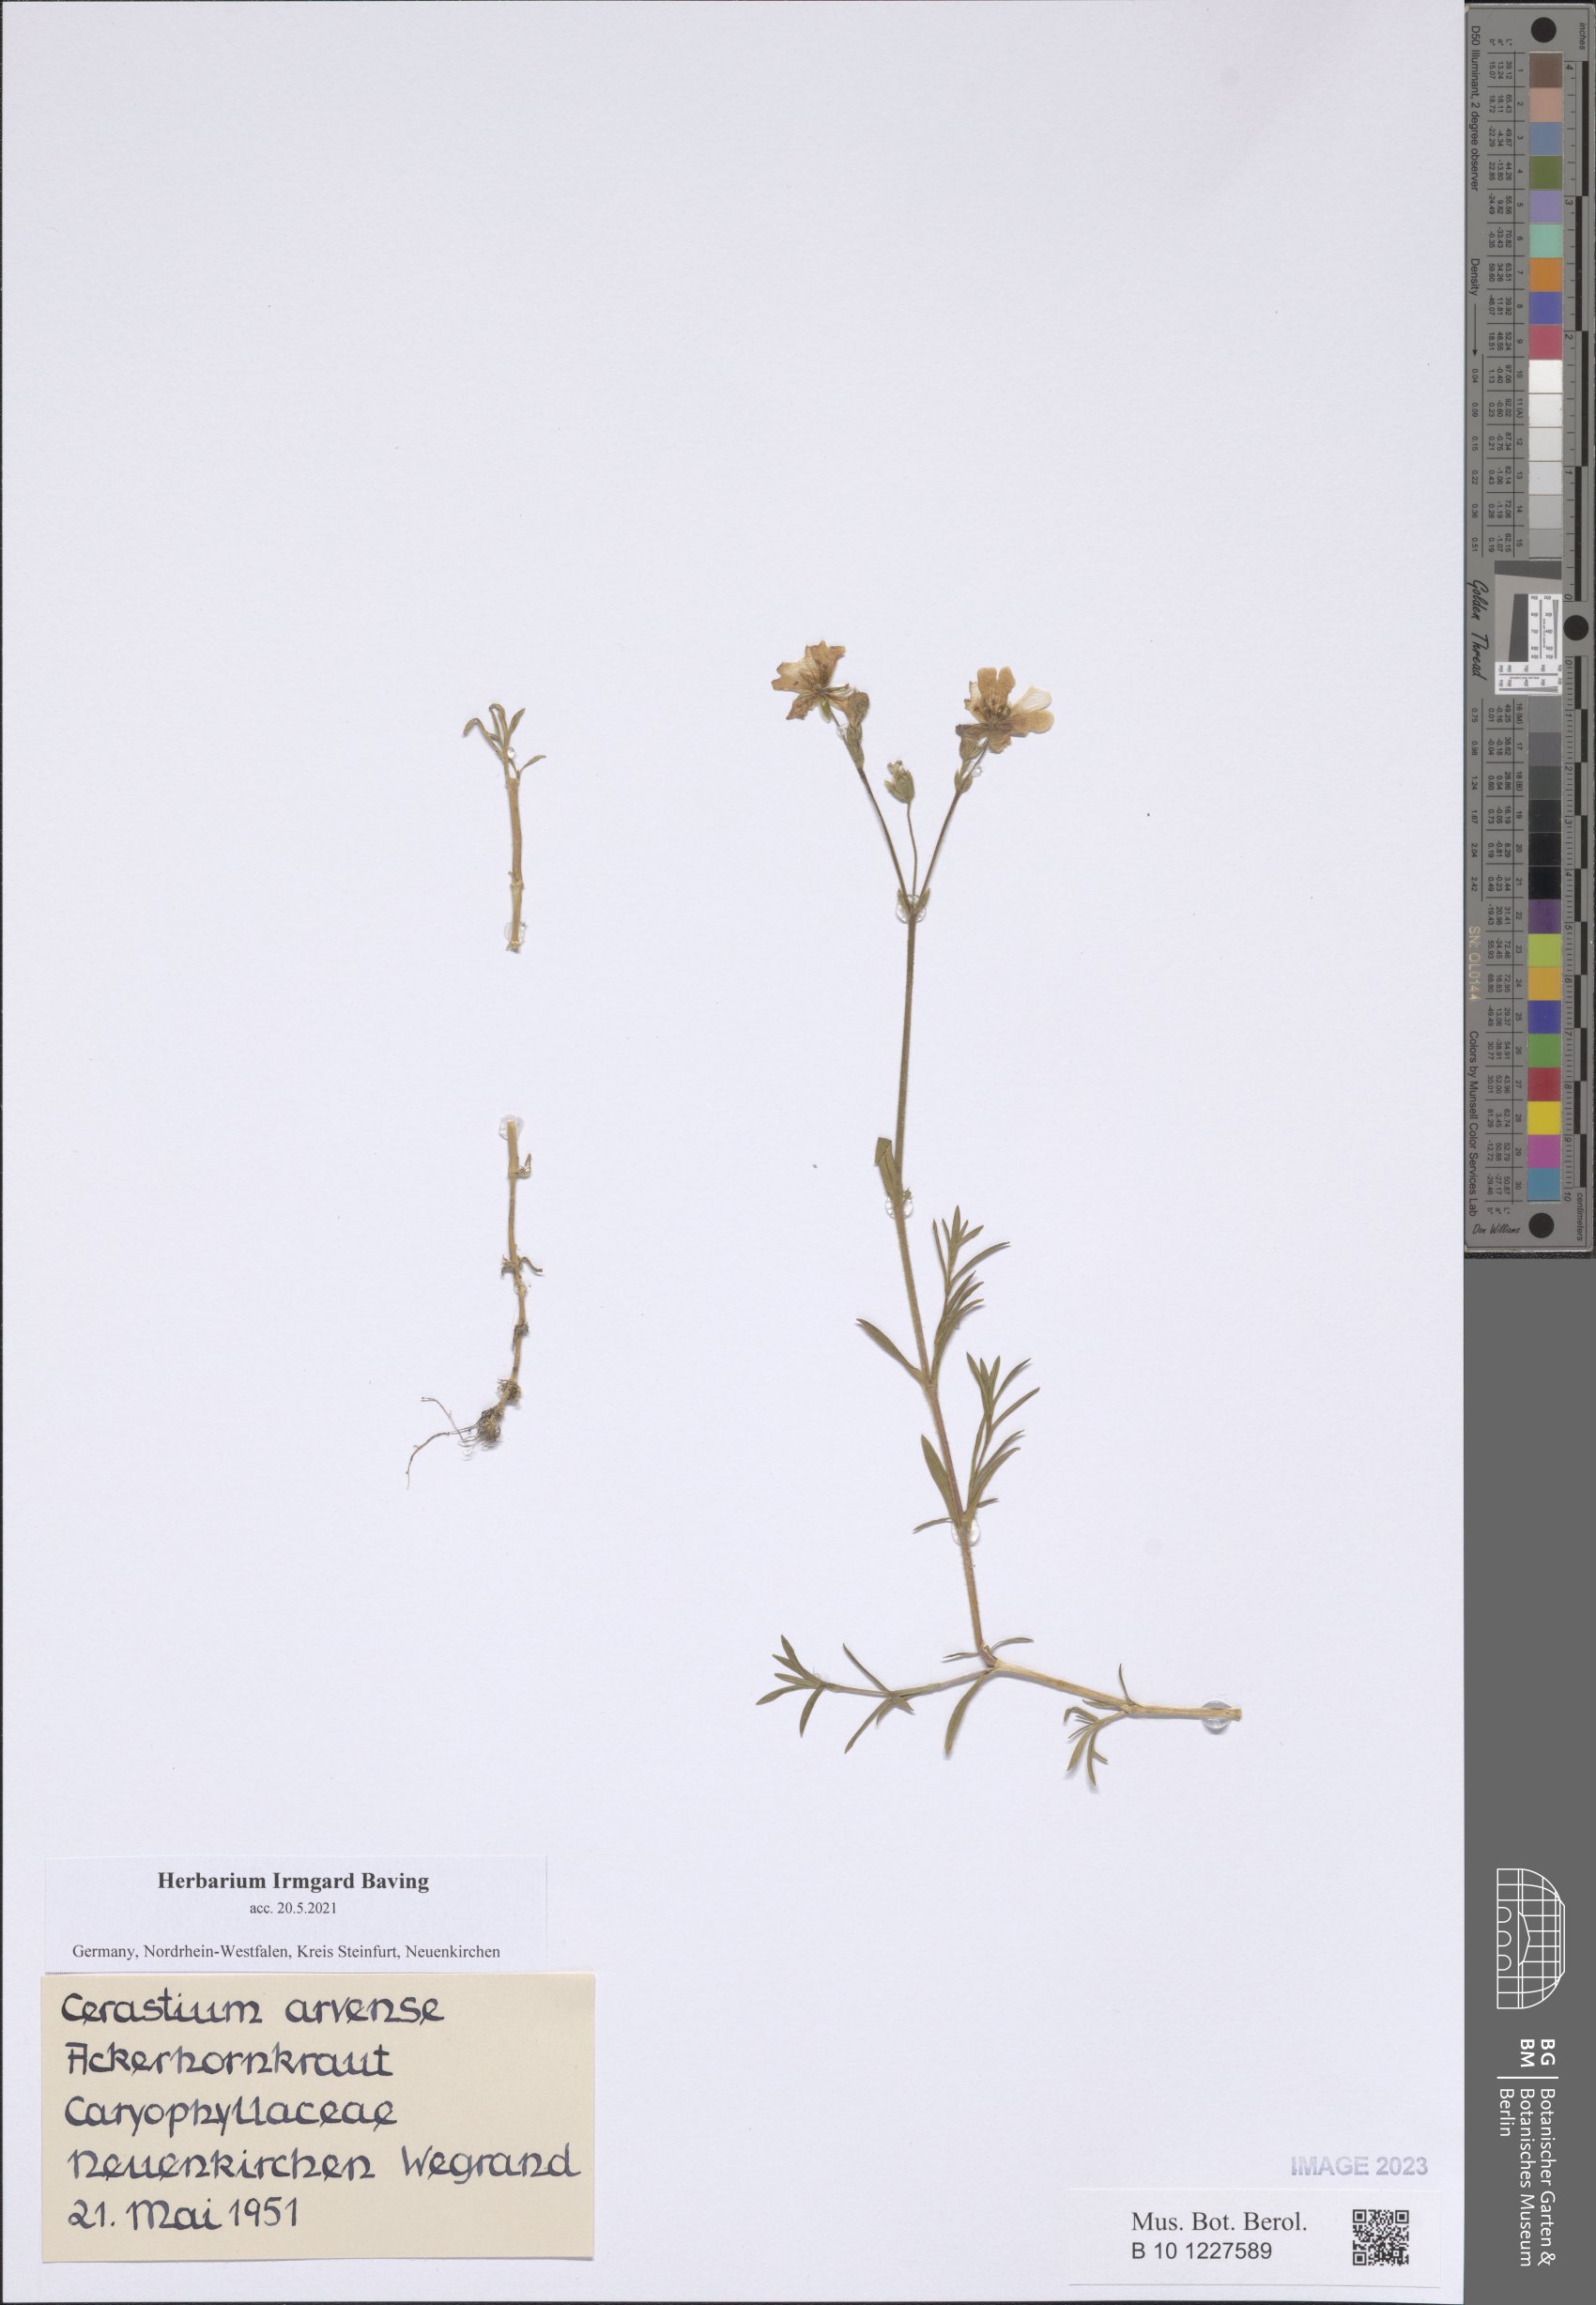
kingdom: Plantae
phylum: Tracheophyta
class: Magnoliopsida
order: Caryophyllales
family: Caryophyllaceae
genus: Cerastium
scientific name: Cerastium arvense
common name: Field mouse-ear
